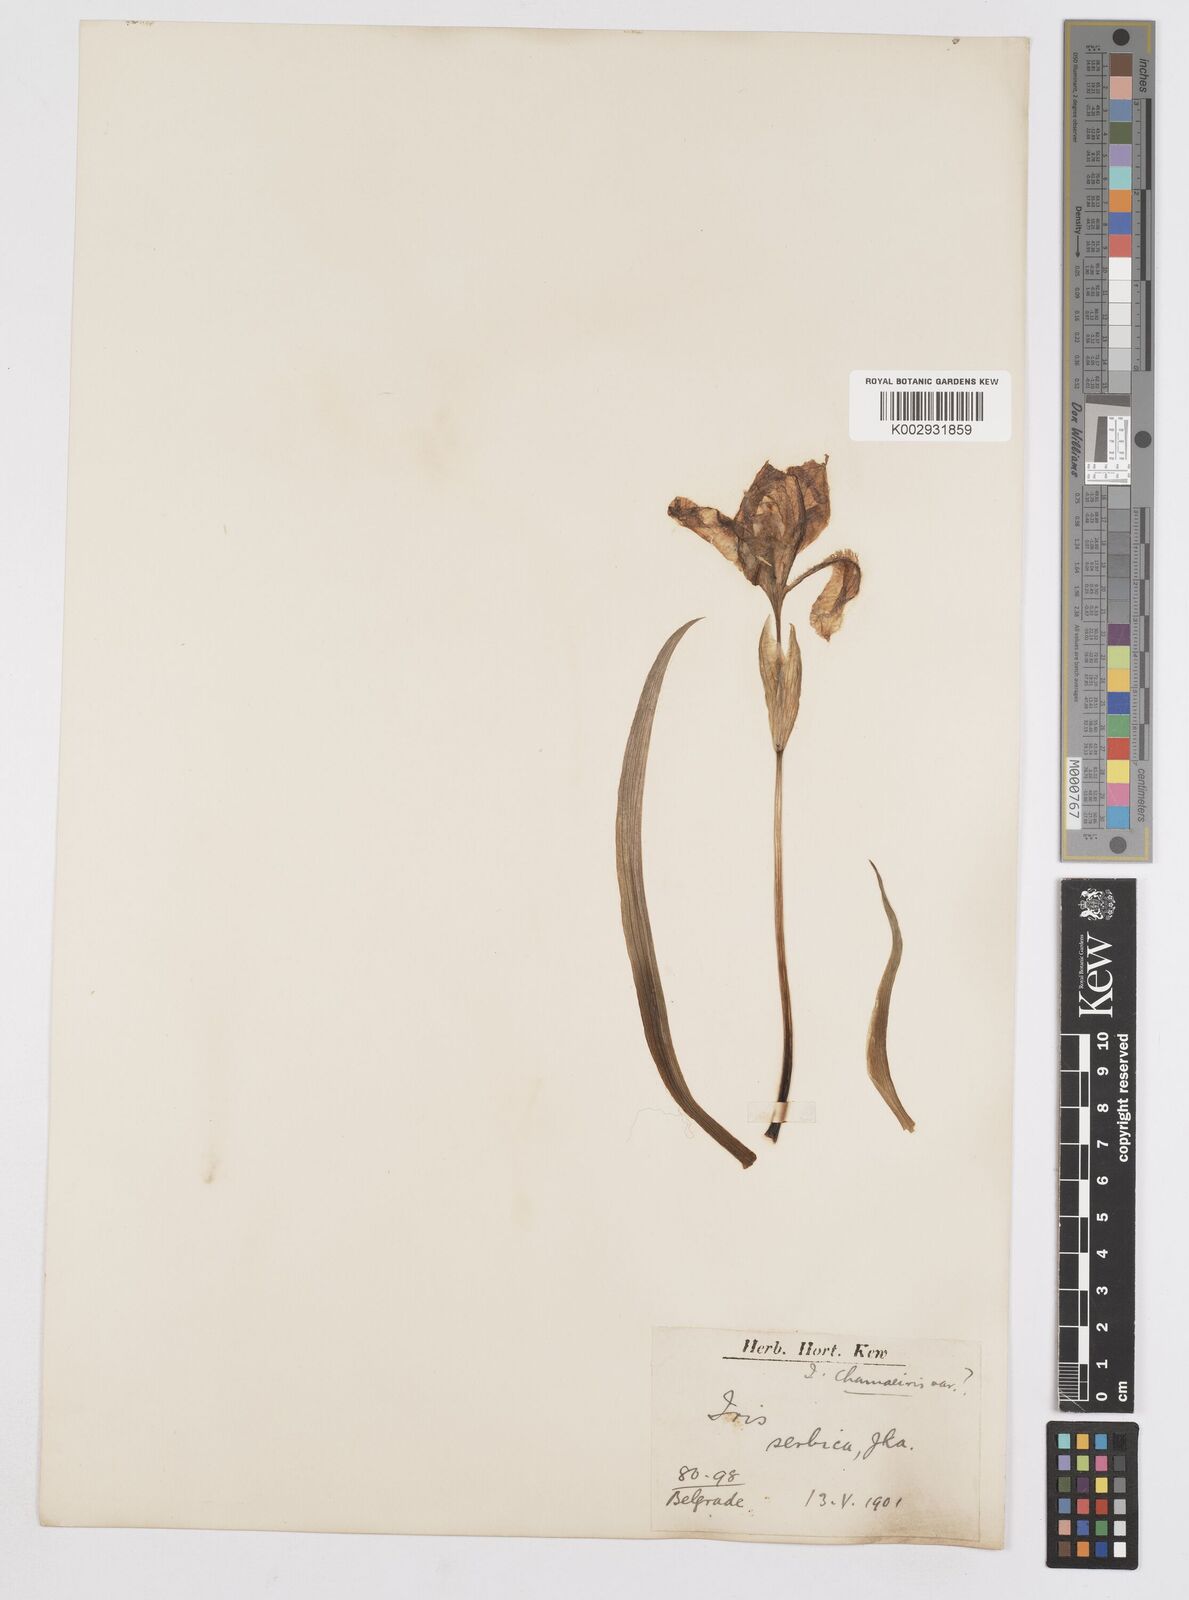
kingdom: Plantae
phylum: Tracheophyta
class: Liliopsida
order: Asparagales
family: Iridaceae
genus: Iris
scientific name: Iris lutescens
